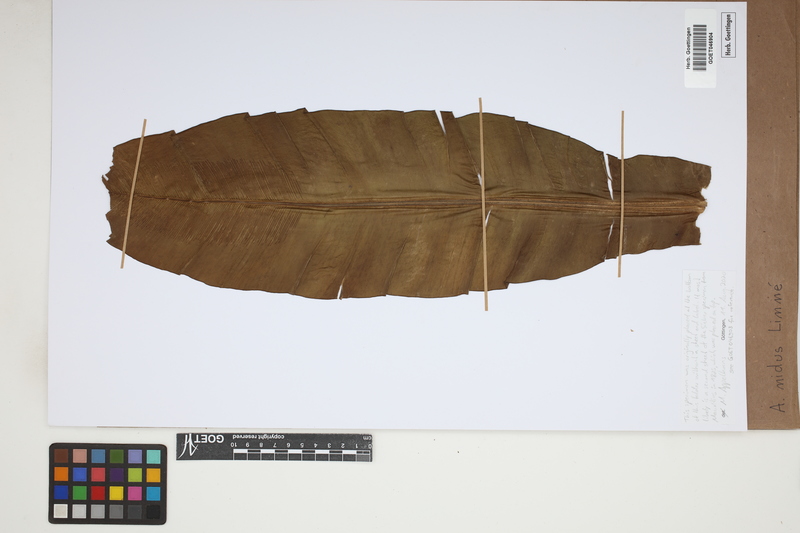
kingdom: Plantae
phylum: Tracheophyta
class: Polypodiopsida
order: Polypodiales
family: Aspleniaceae
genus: Asplenium
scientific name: Asplenium nidus
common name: Bird's-nest fern
